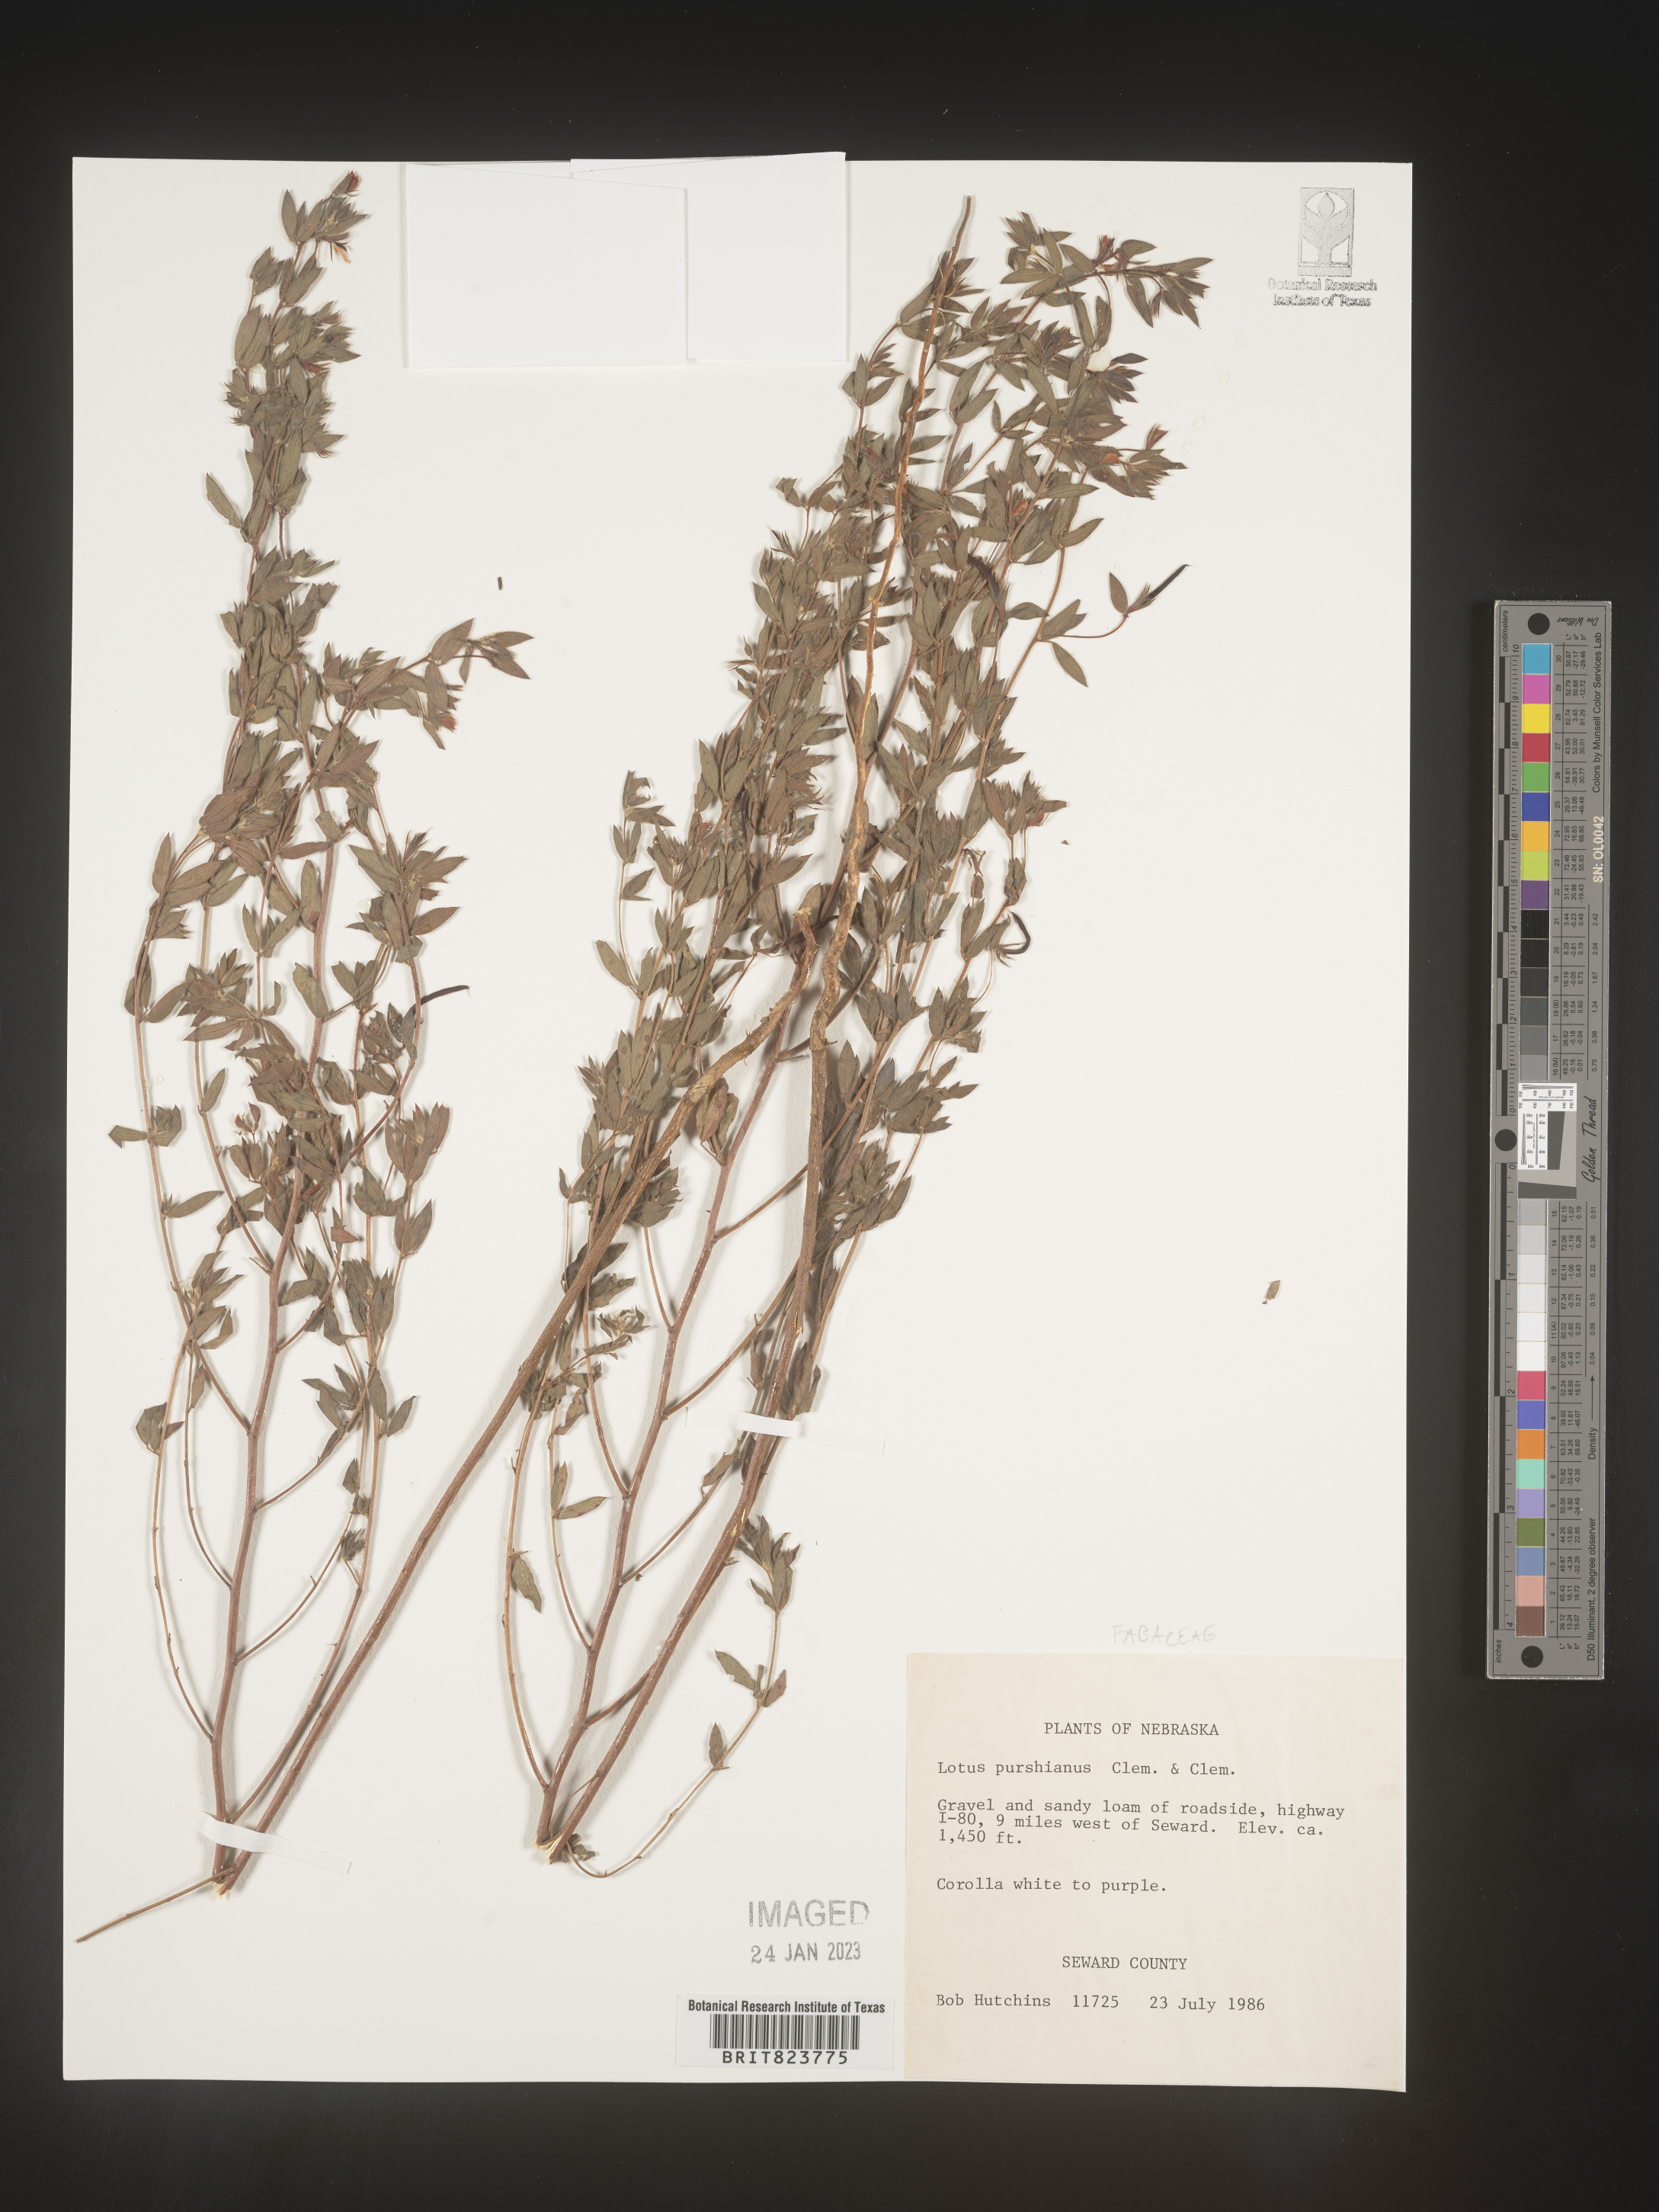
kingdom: Plantae
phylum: Tracheophyta
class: Magnoliopsida
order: Fabales
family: Fabaceae
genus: Acmispon
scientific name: Acmispon americanus
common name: American bird's-foot trefoil
